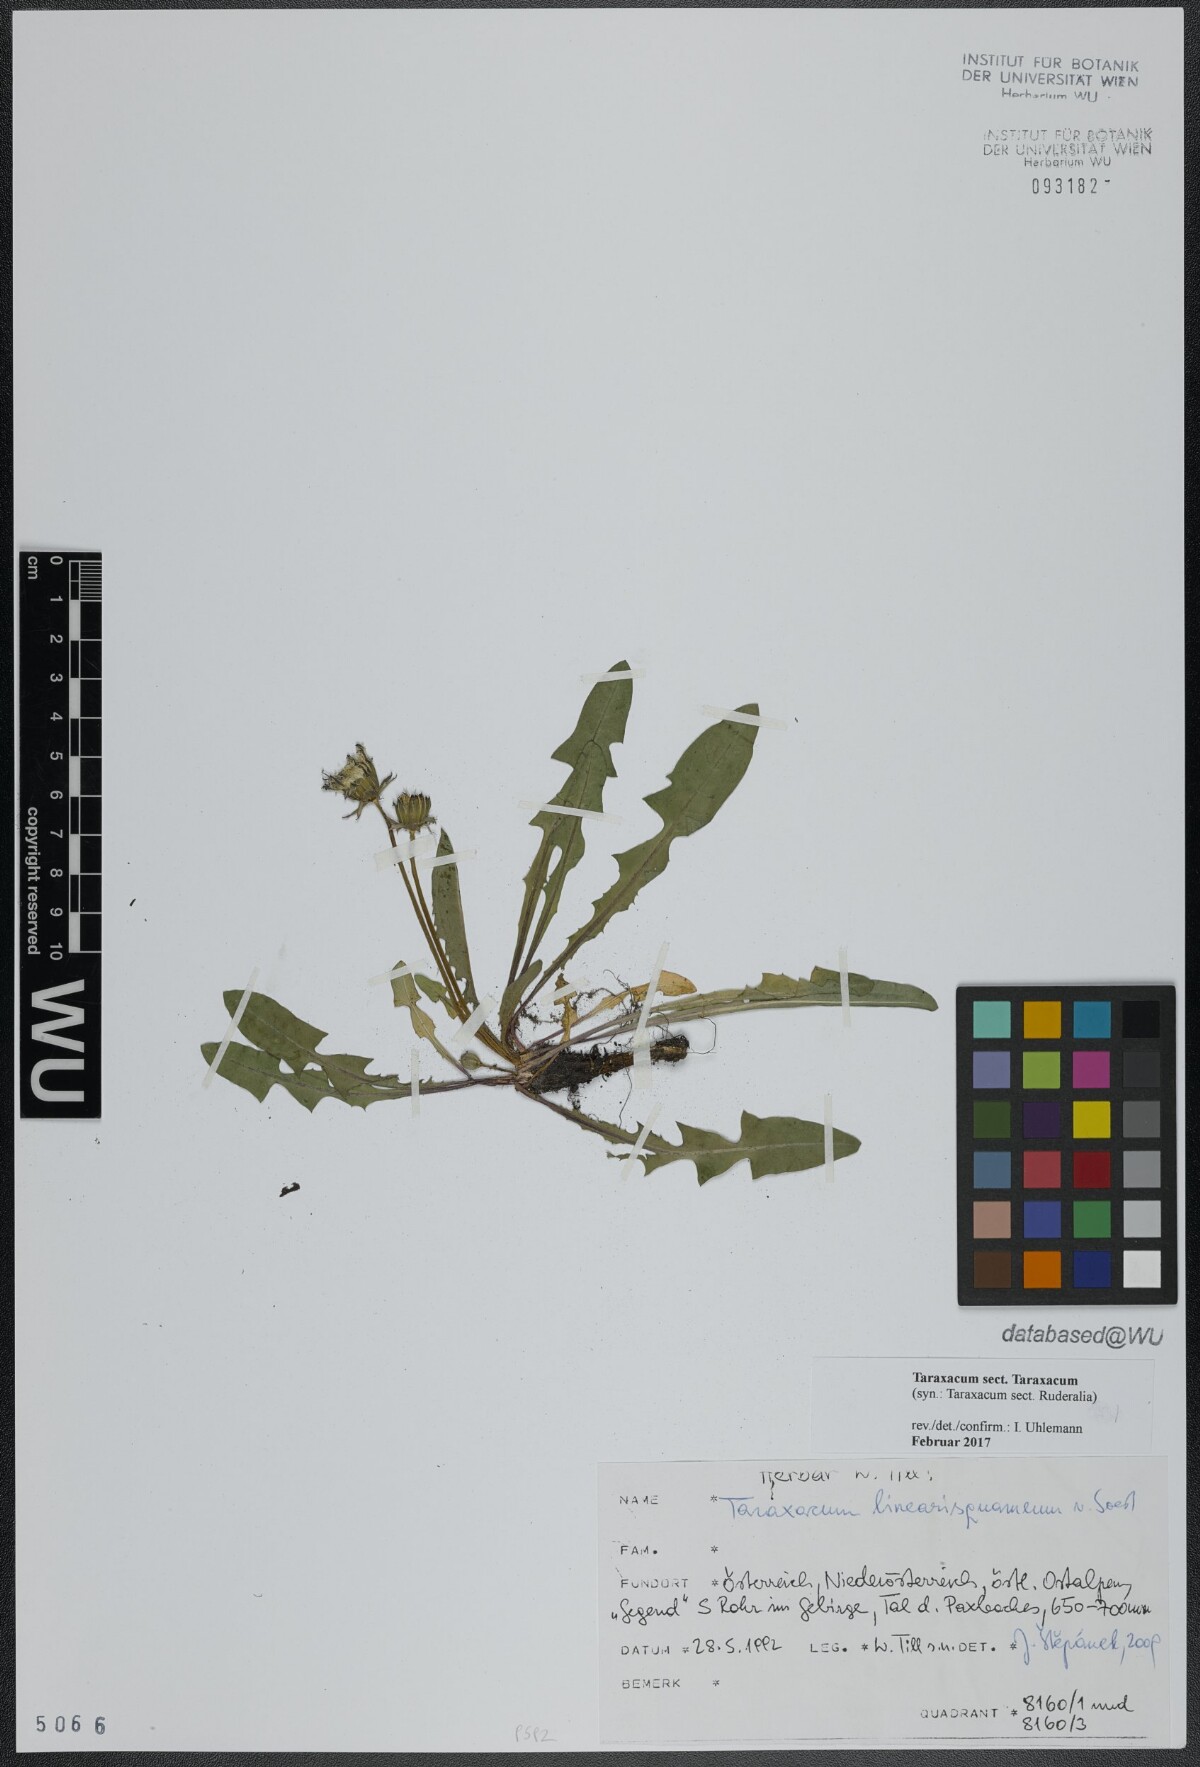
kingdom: Plantae
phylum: Tracheophyta
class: Magnoliopsida
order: Asterales
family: Asteraceae
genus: Taraxacum
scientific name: Taraxacum
